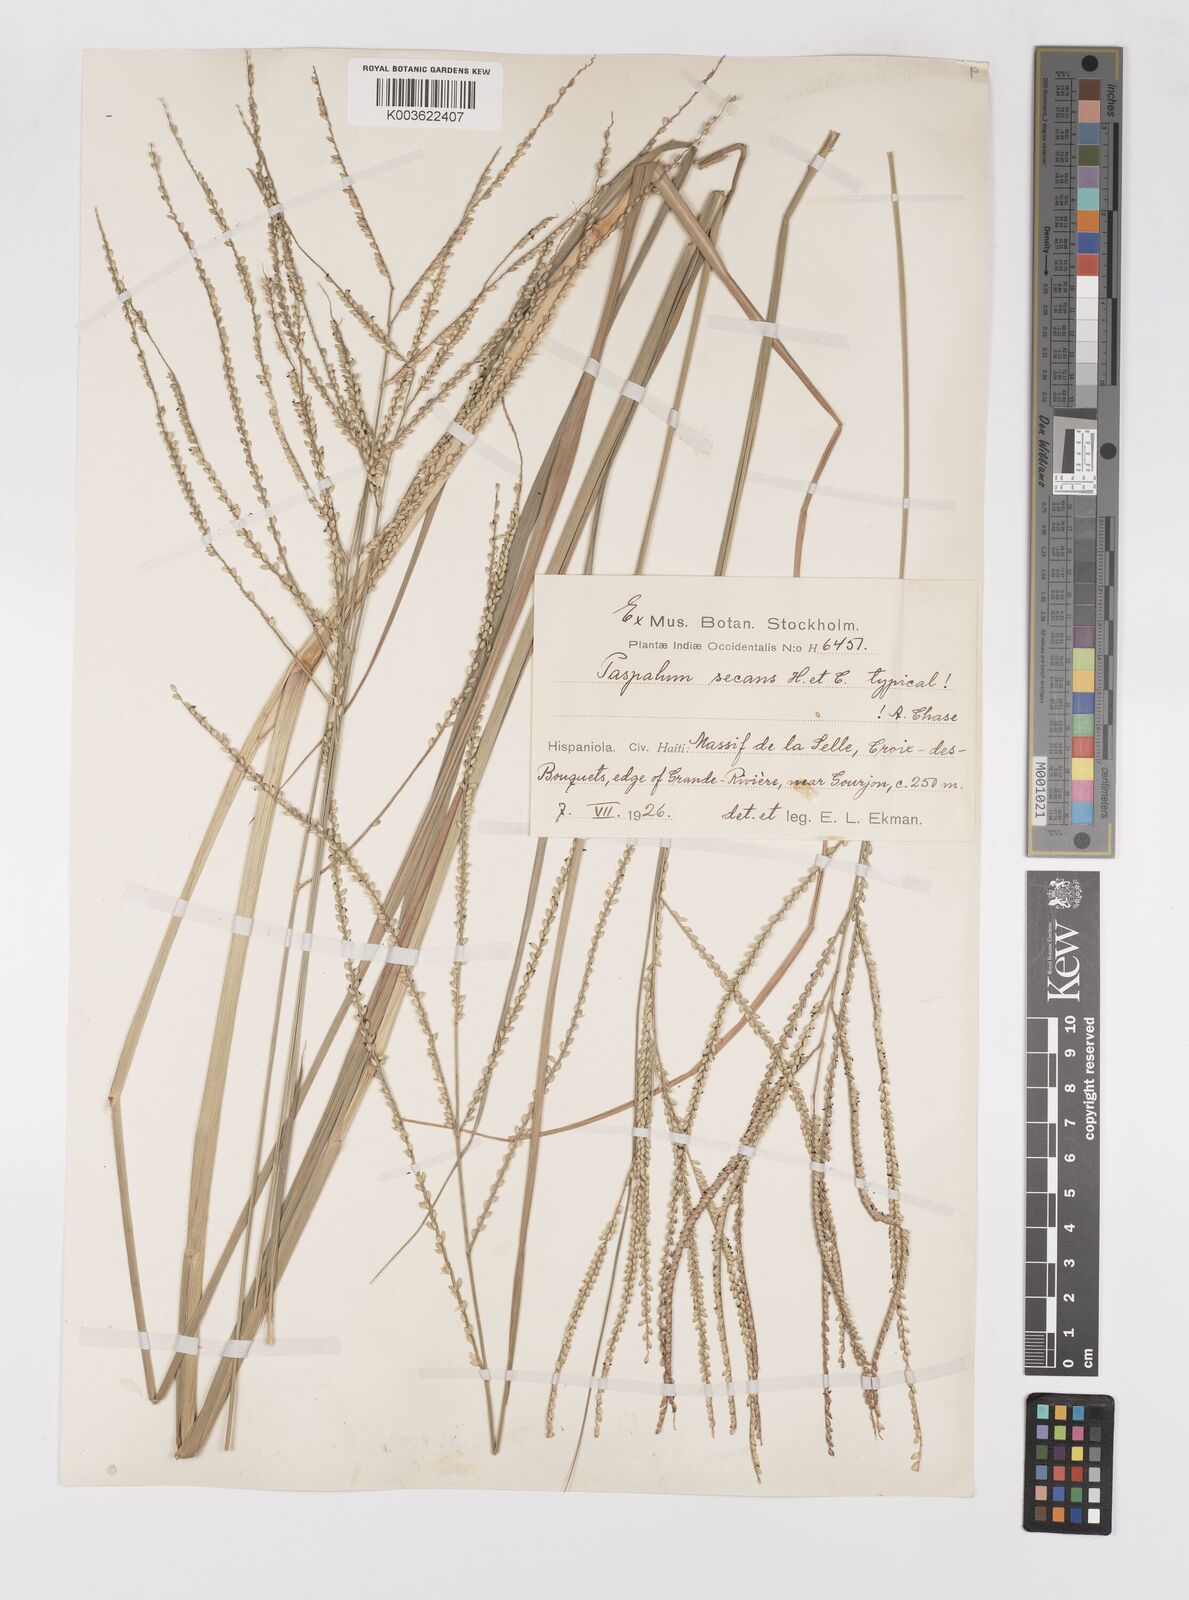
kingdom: Plantae
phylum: Tracheophyta
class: Liliopsida
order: Poales
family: Poaceae
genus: Paspalum
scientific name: Paspalum arundinaceum
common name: Thick ditch crowngrass
